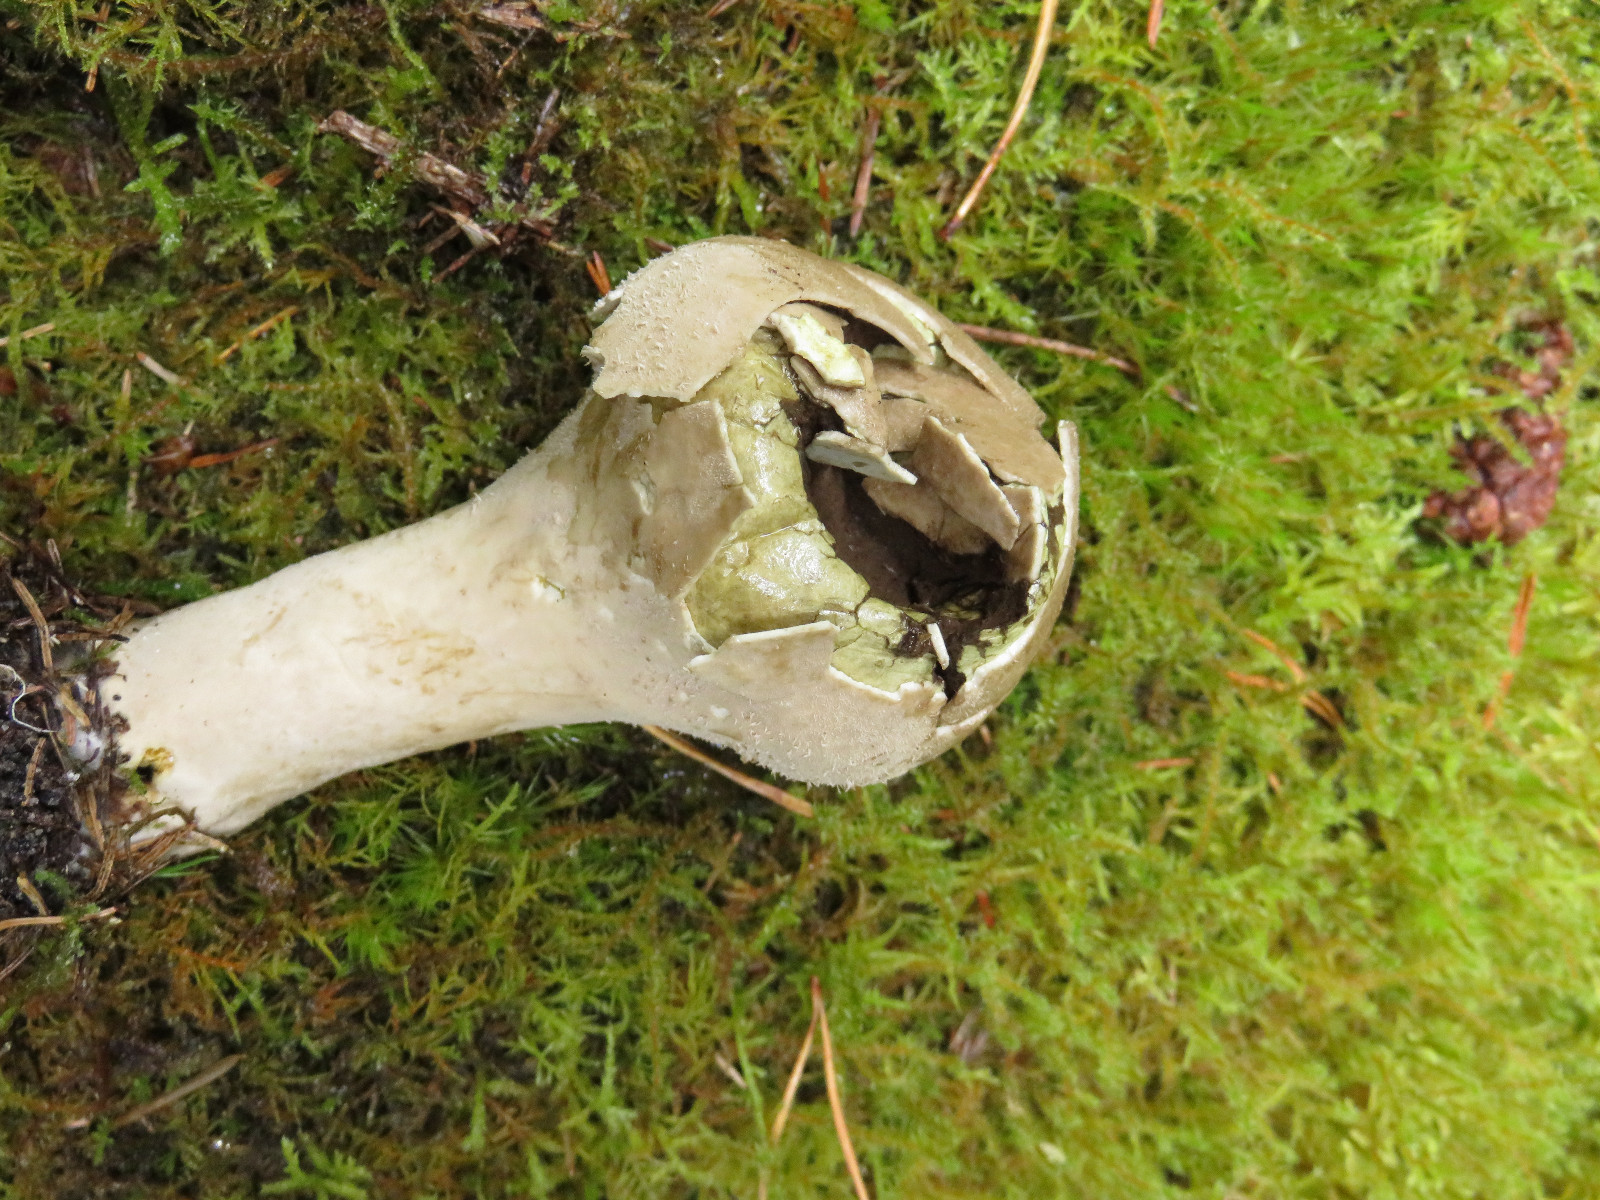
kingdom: Fungi
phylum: Basidiomycota
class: Agaricomycetes
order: Agaricales
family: Lycoperdaceae
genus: Lycoperdon
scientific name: Lycoperdon excipuliforme
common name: højstokket støvbold
